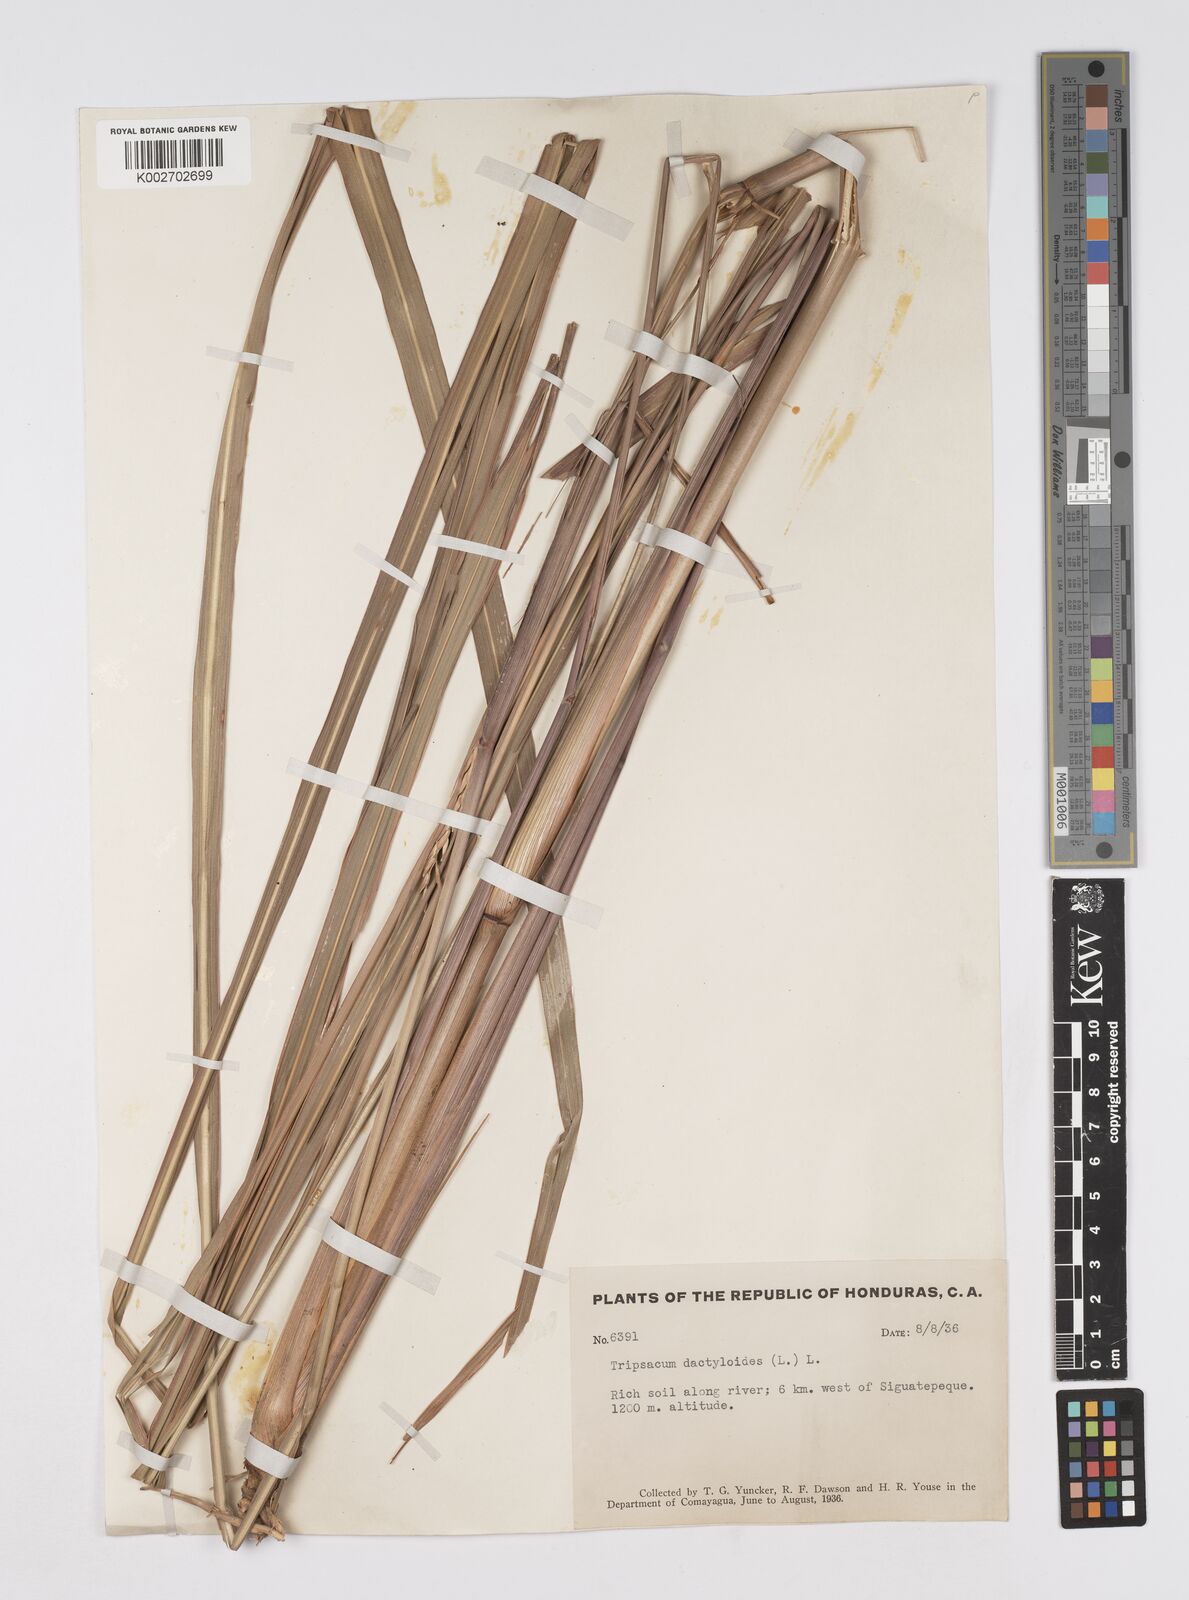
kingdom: Plantae
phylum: Tracheophyta
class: Liliopsida
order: Poales
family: Poaceae
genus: Tripsacum
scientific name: Tripsacum
